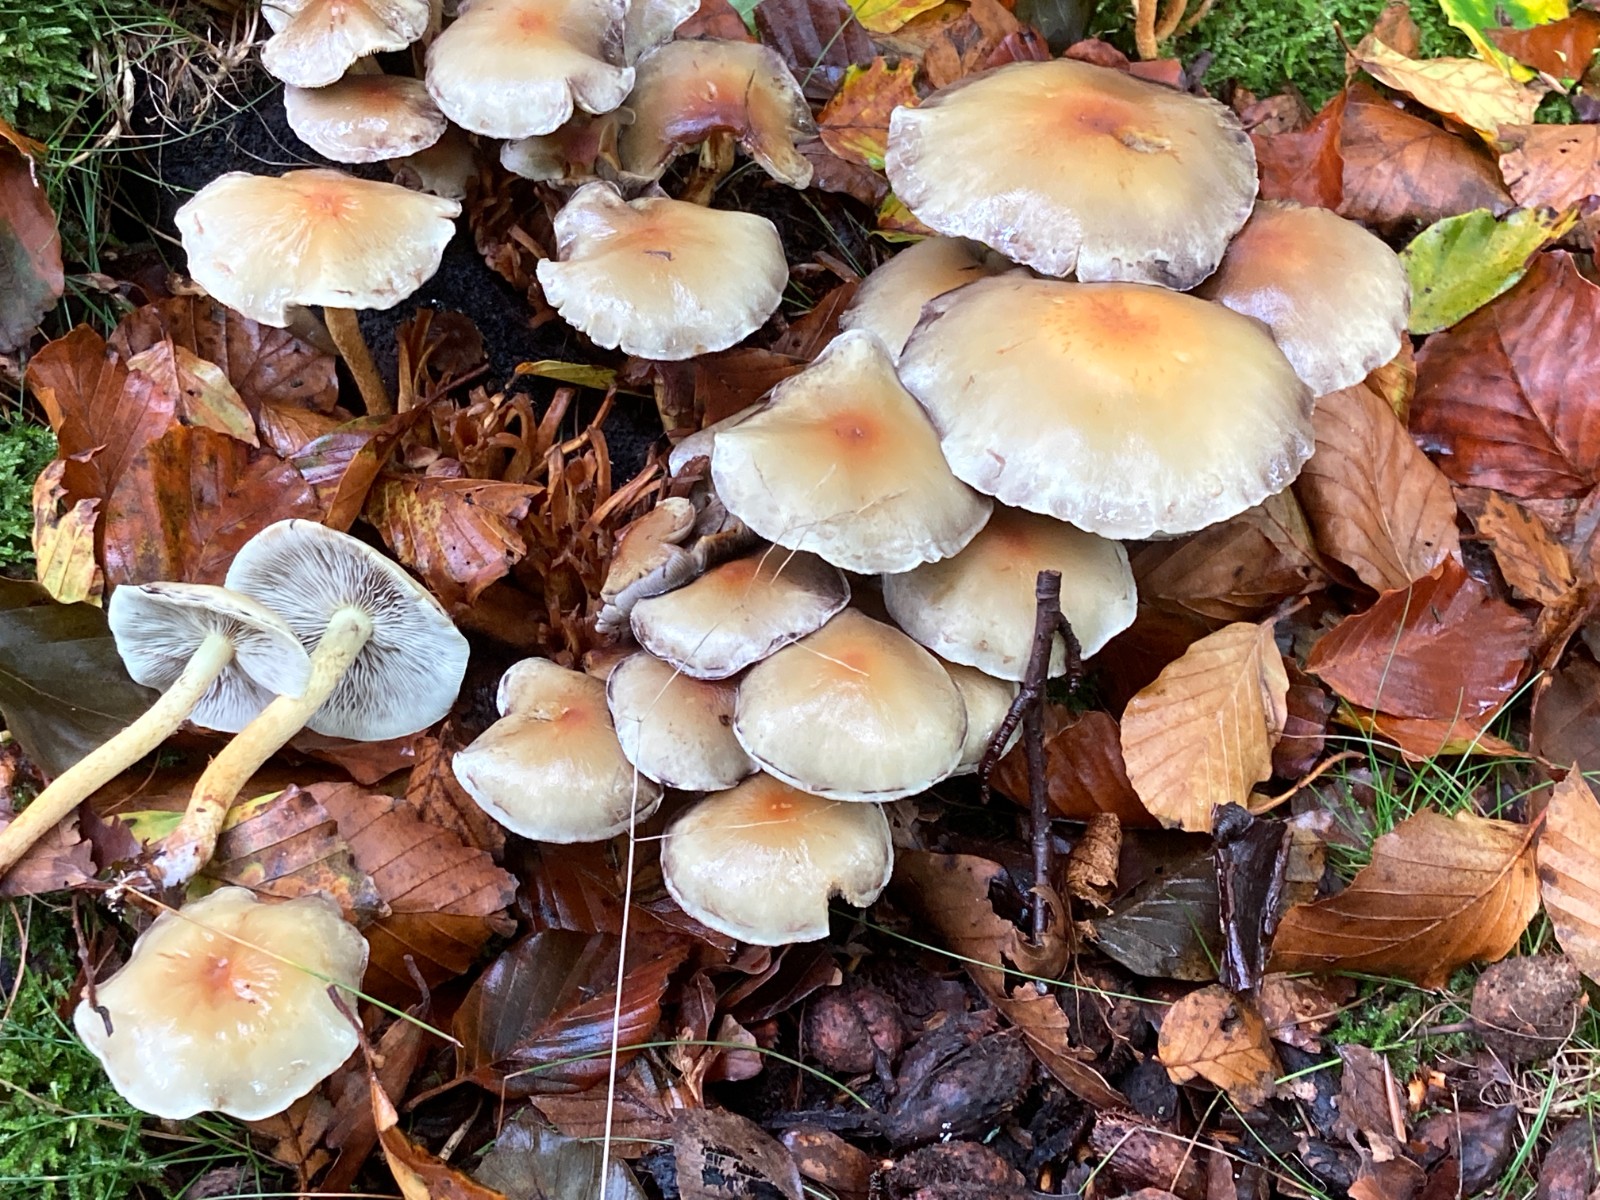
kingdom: Fungi
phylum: Basidiomycota
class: Agaricomycetes
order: Agaricales
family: Strophariaceae
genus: Hypholoma
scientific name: Hypholoma fasciculare
